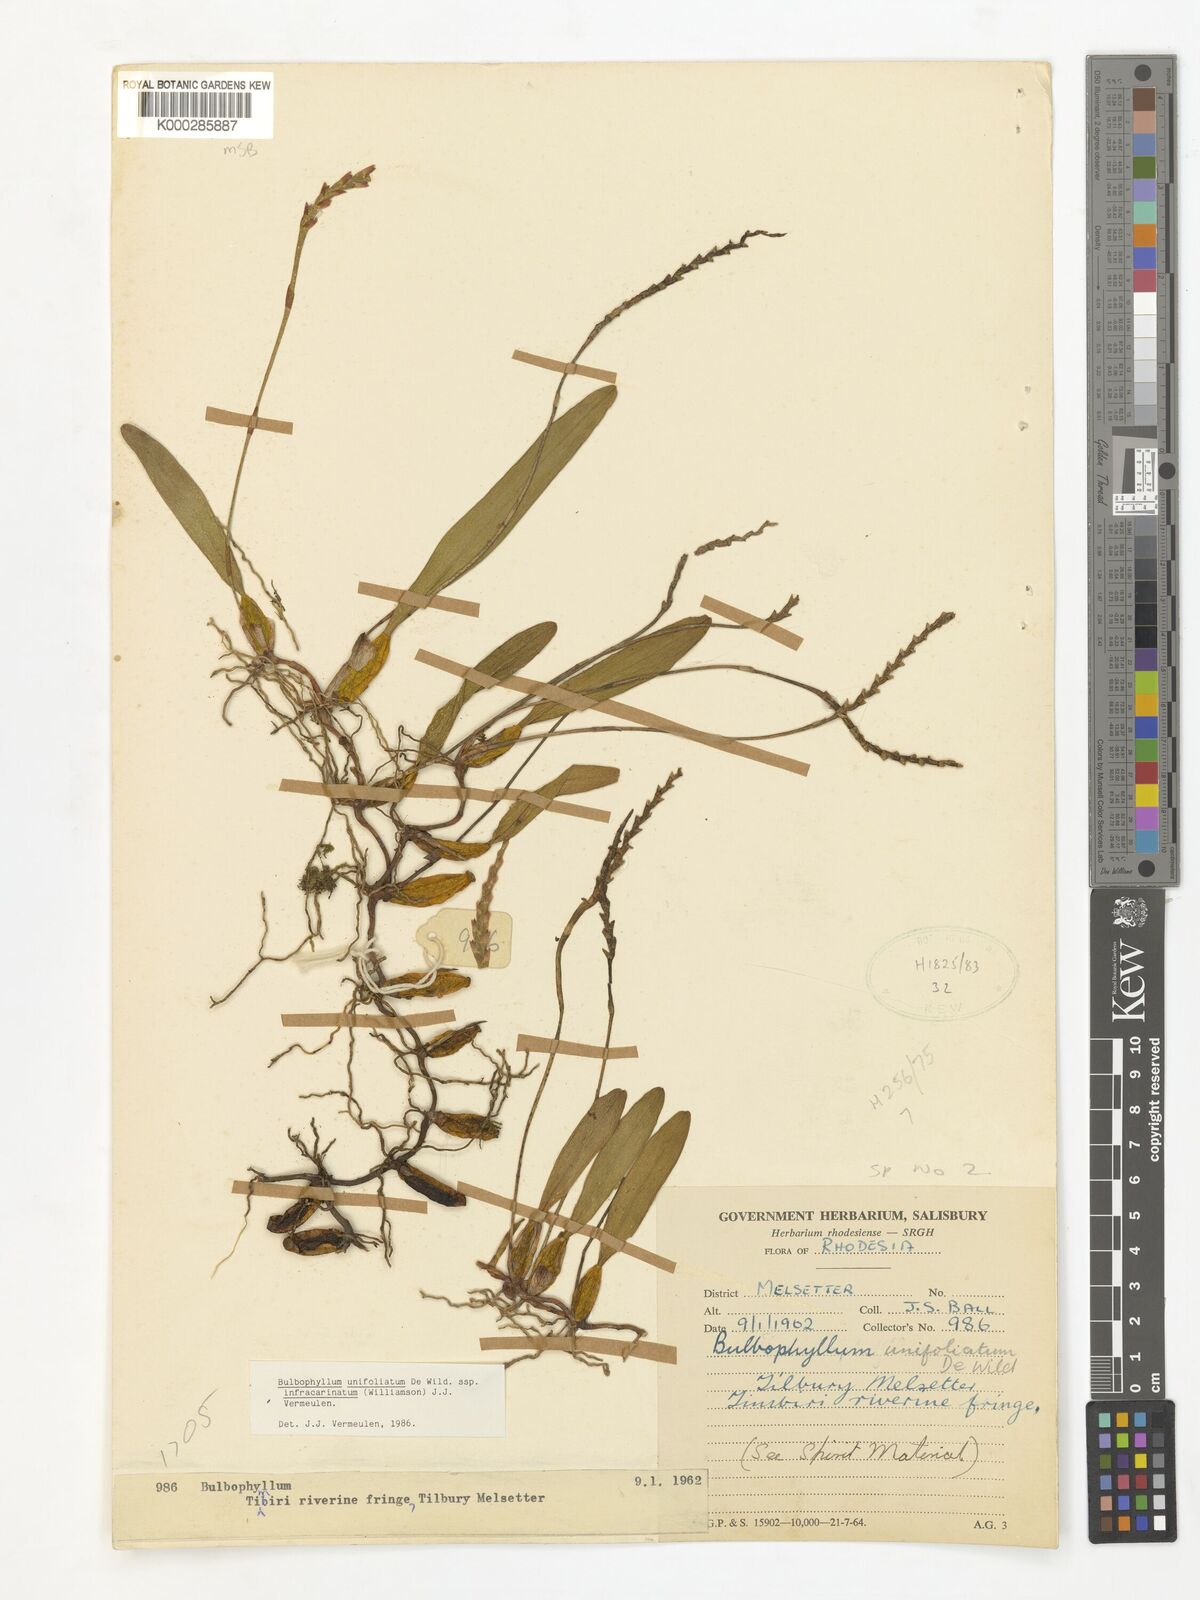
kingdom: Plantae
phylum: Tracheophyta
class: Liliopsida
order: Asparagales
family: Orchidaceae
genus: Bulbophyllum
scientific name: Bulbophyllum unifoliatum
